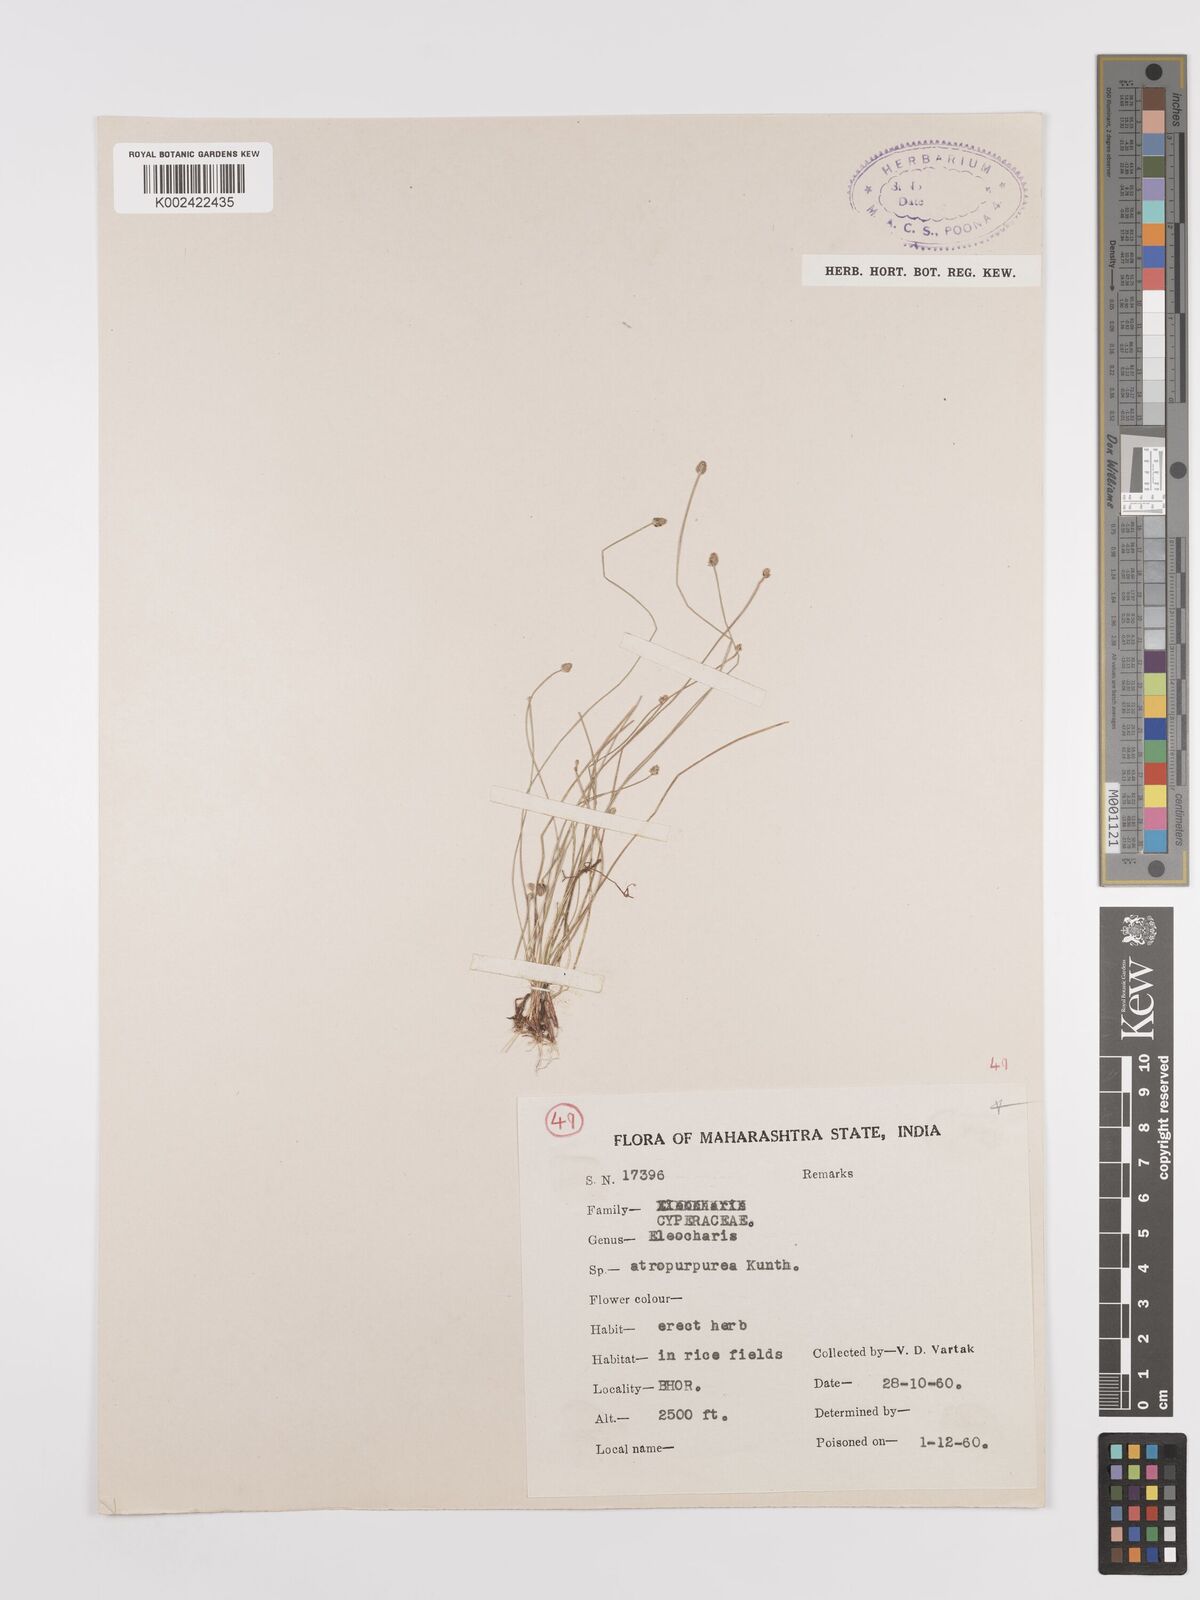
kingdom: Plantae
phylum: Tracheophyta
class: Liliopsida
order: Poales
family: Cyperaceae
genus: Eleocharis
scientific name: Eleocharis atropurpurea
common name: Purple spikerush
